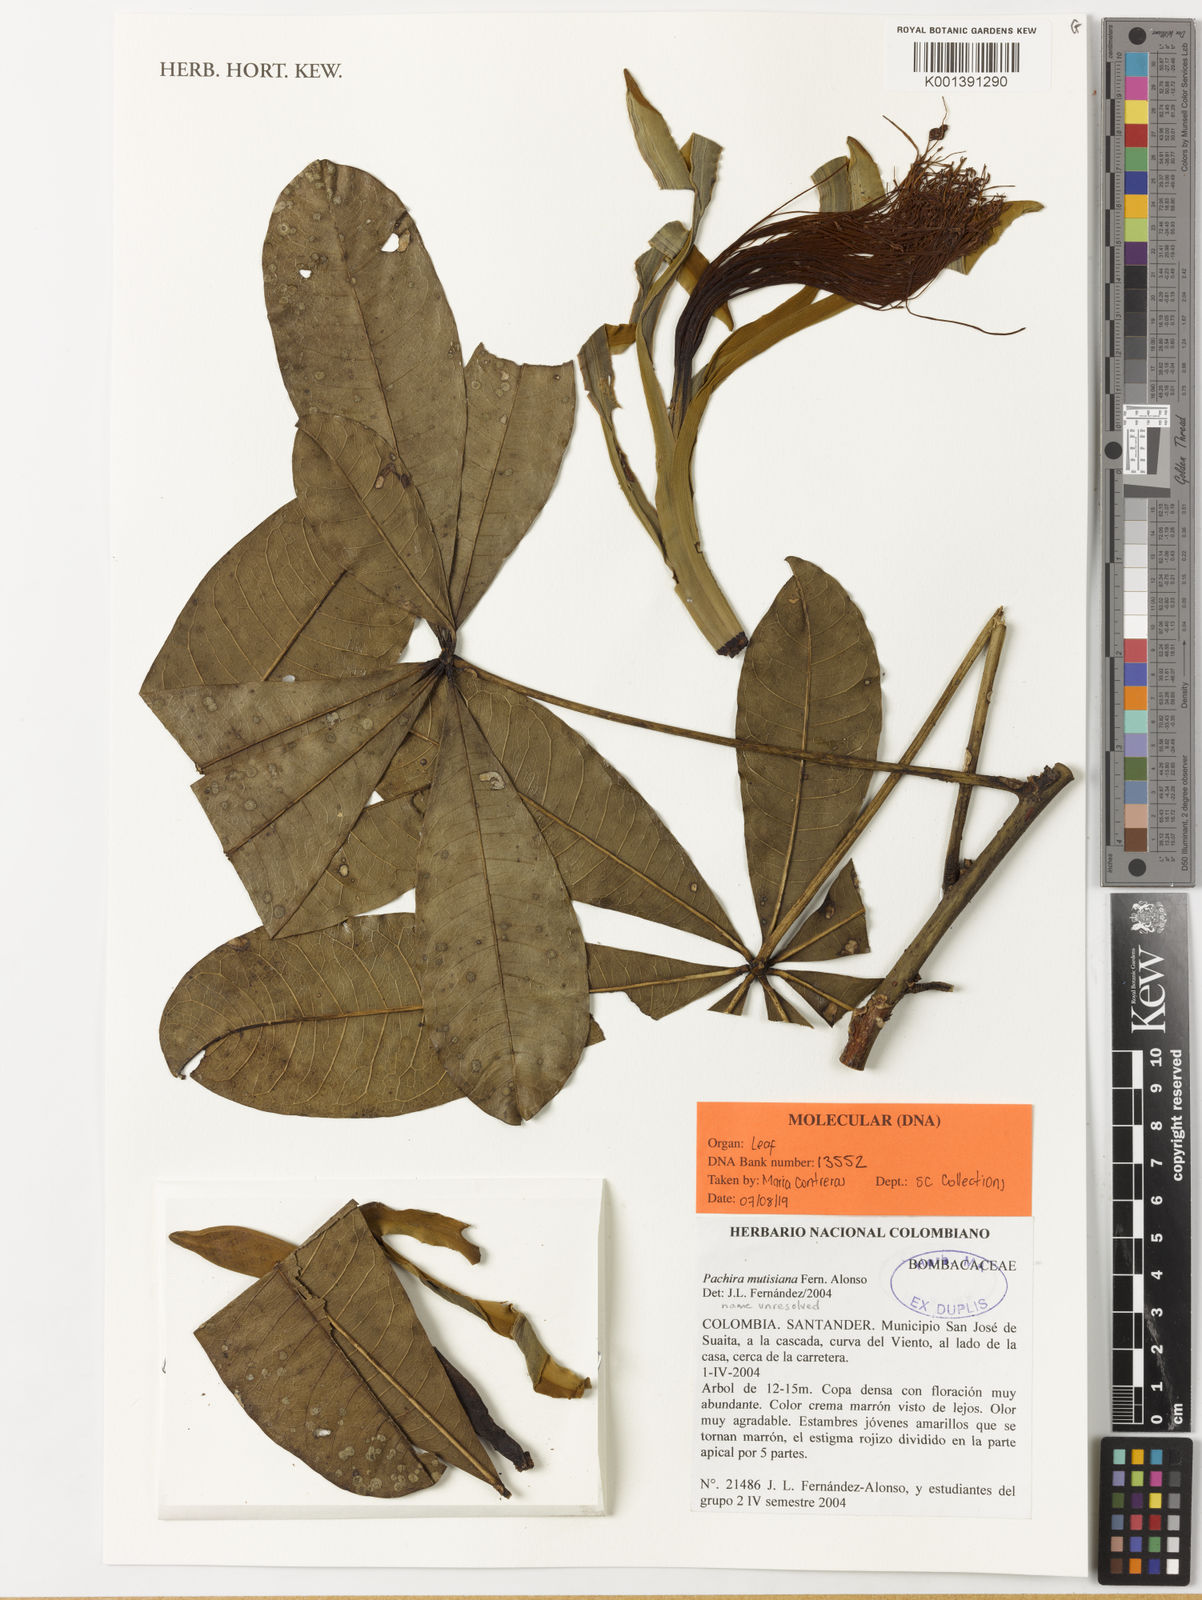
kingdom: Plantae
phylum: Tracheophyta
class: Magnoliopsida
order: Malvales
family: Malvaceae
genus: Pachira
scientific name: Pachira mutisiana
